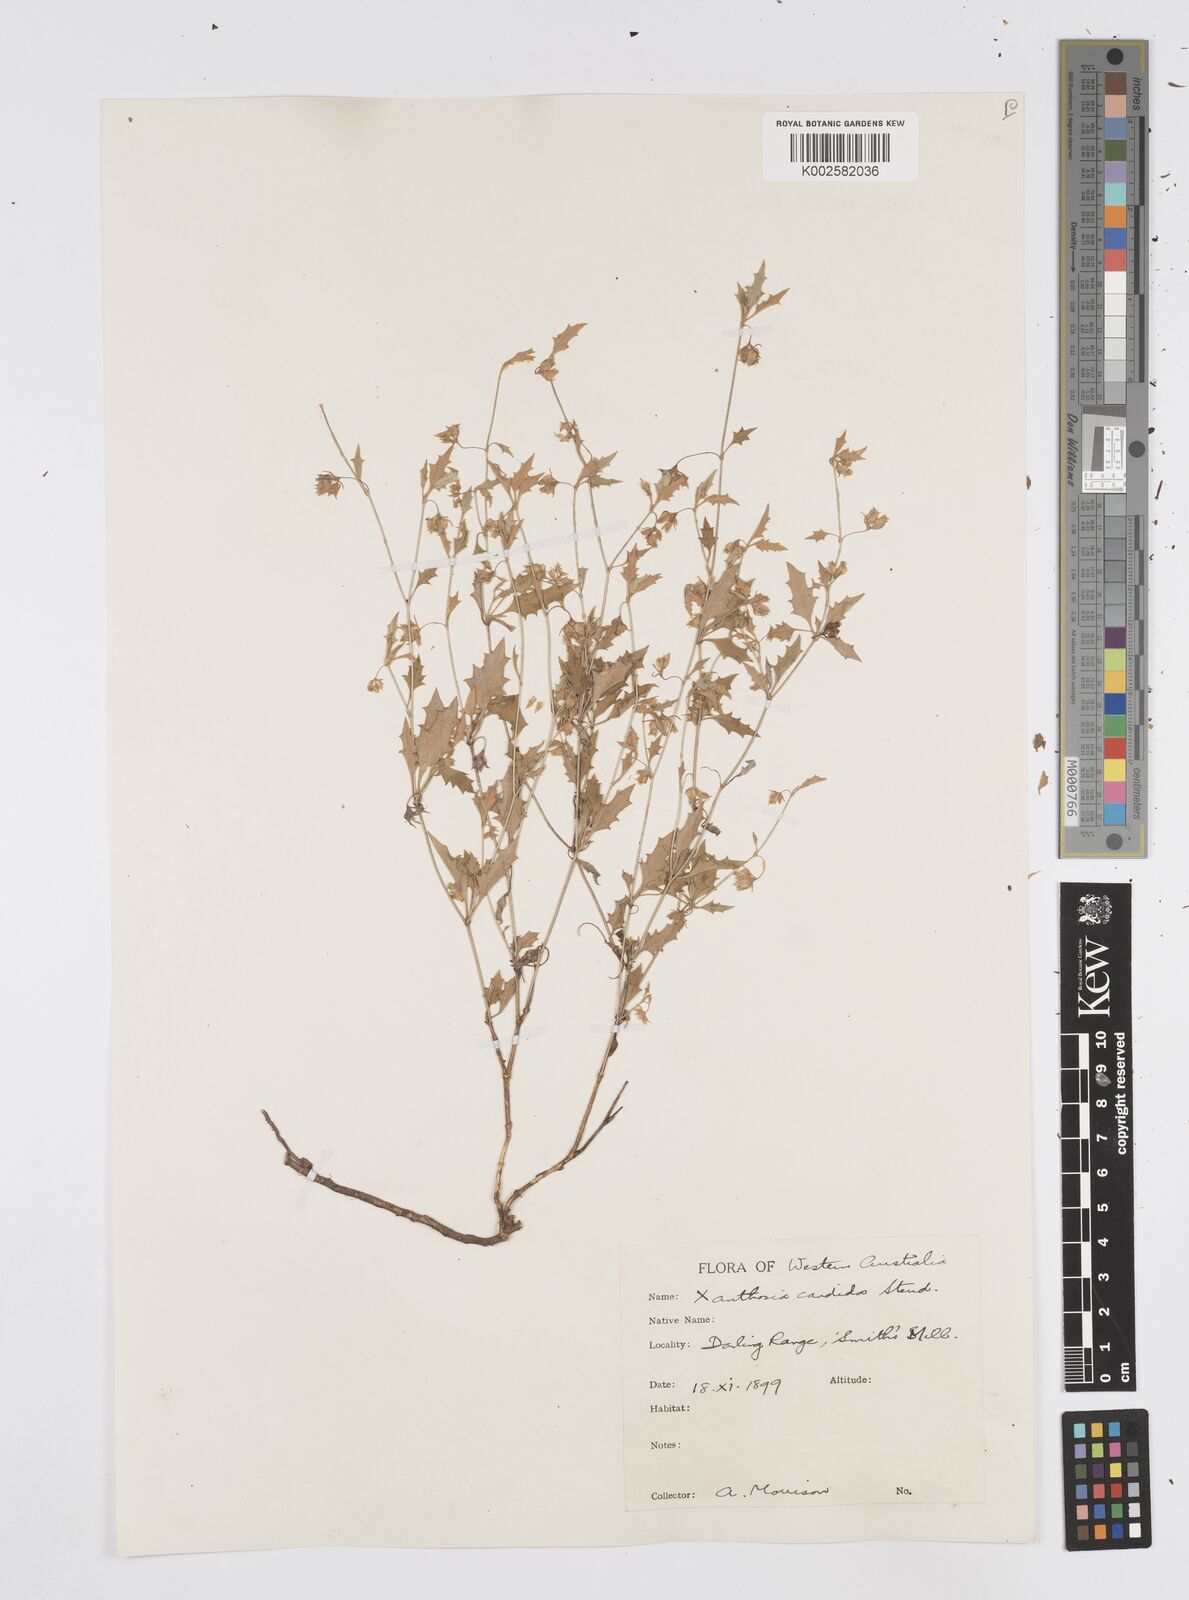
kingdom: Plantae
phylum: Tracheophyta
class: Magnoliopsida
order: Apiales
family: Apiaceae
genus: Xanthosia
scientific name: Xanthosia candida
